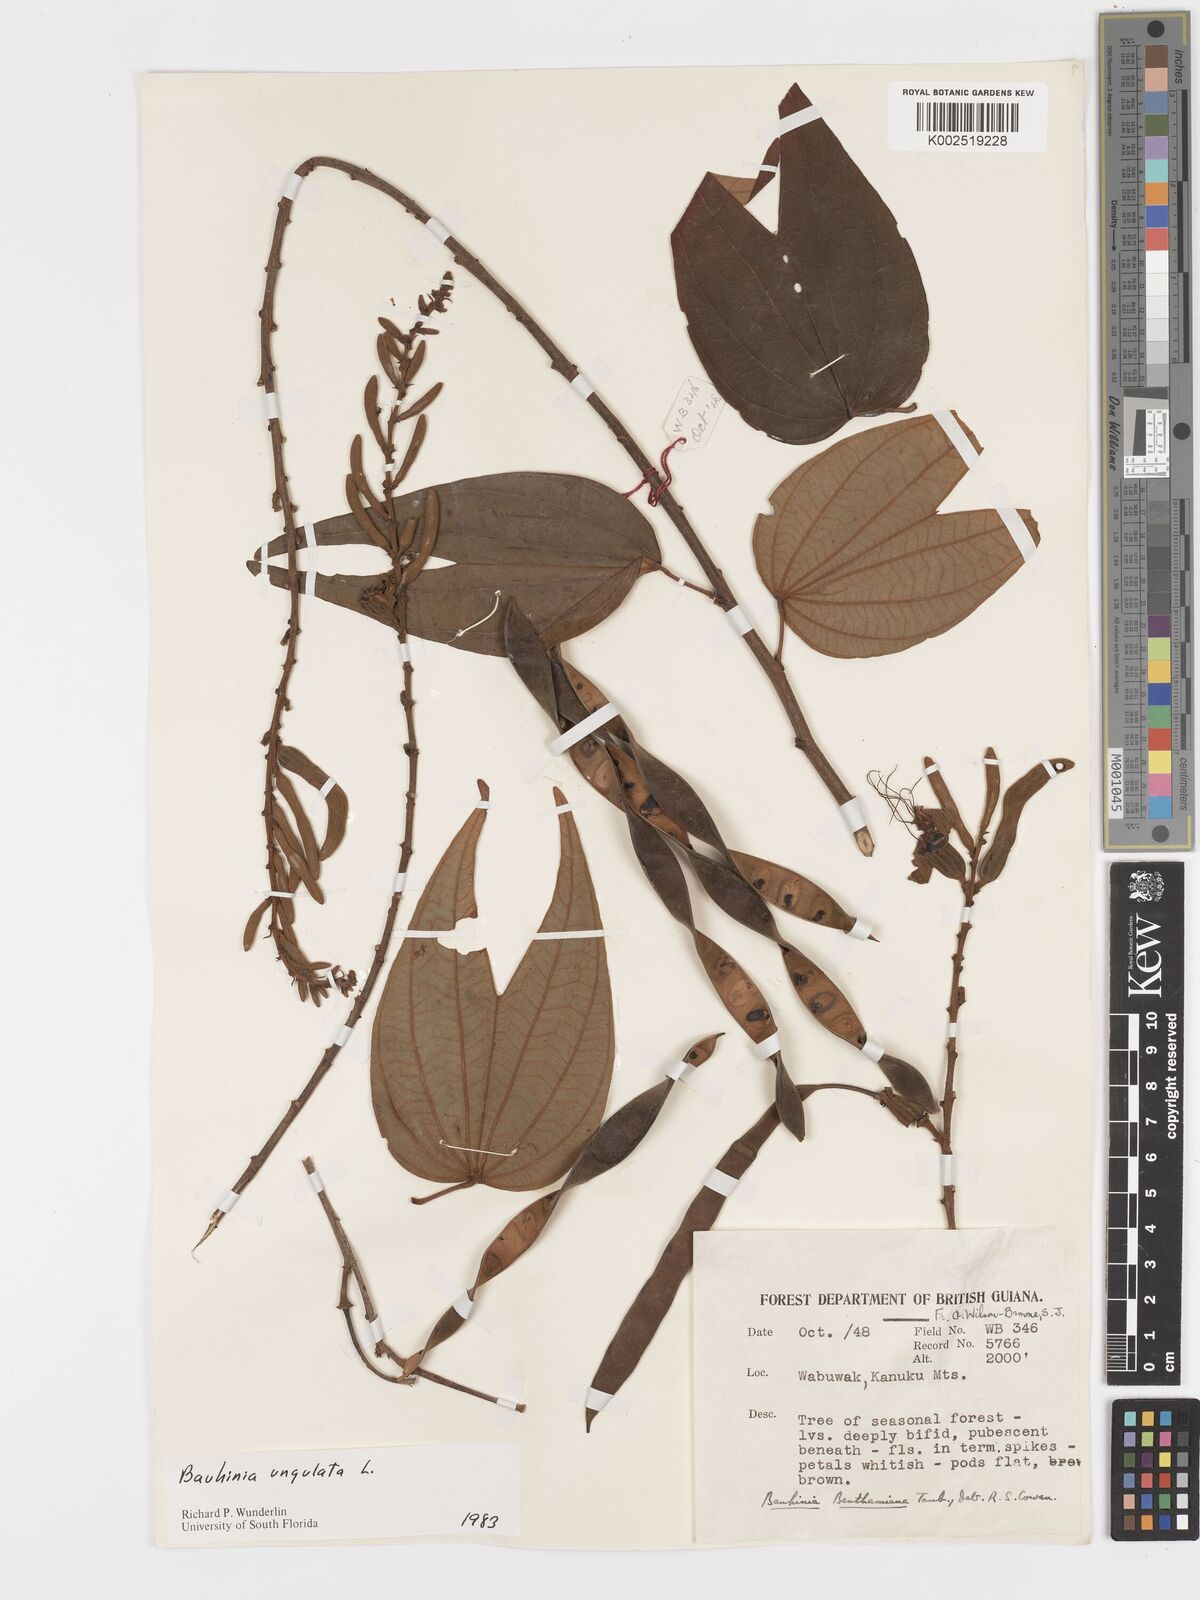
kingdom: Plantae
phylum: Tracheophyta
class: Magnoliopsida
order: Fabales
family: Fabaceae
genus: Bauhinia
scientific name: Bauhinia ungulata
